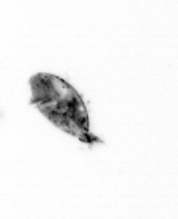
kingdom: Animalia
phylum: Arthropoda
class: Maxillopoda
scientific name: Maxillopoda
